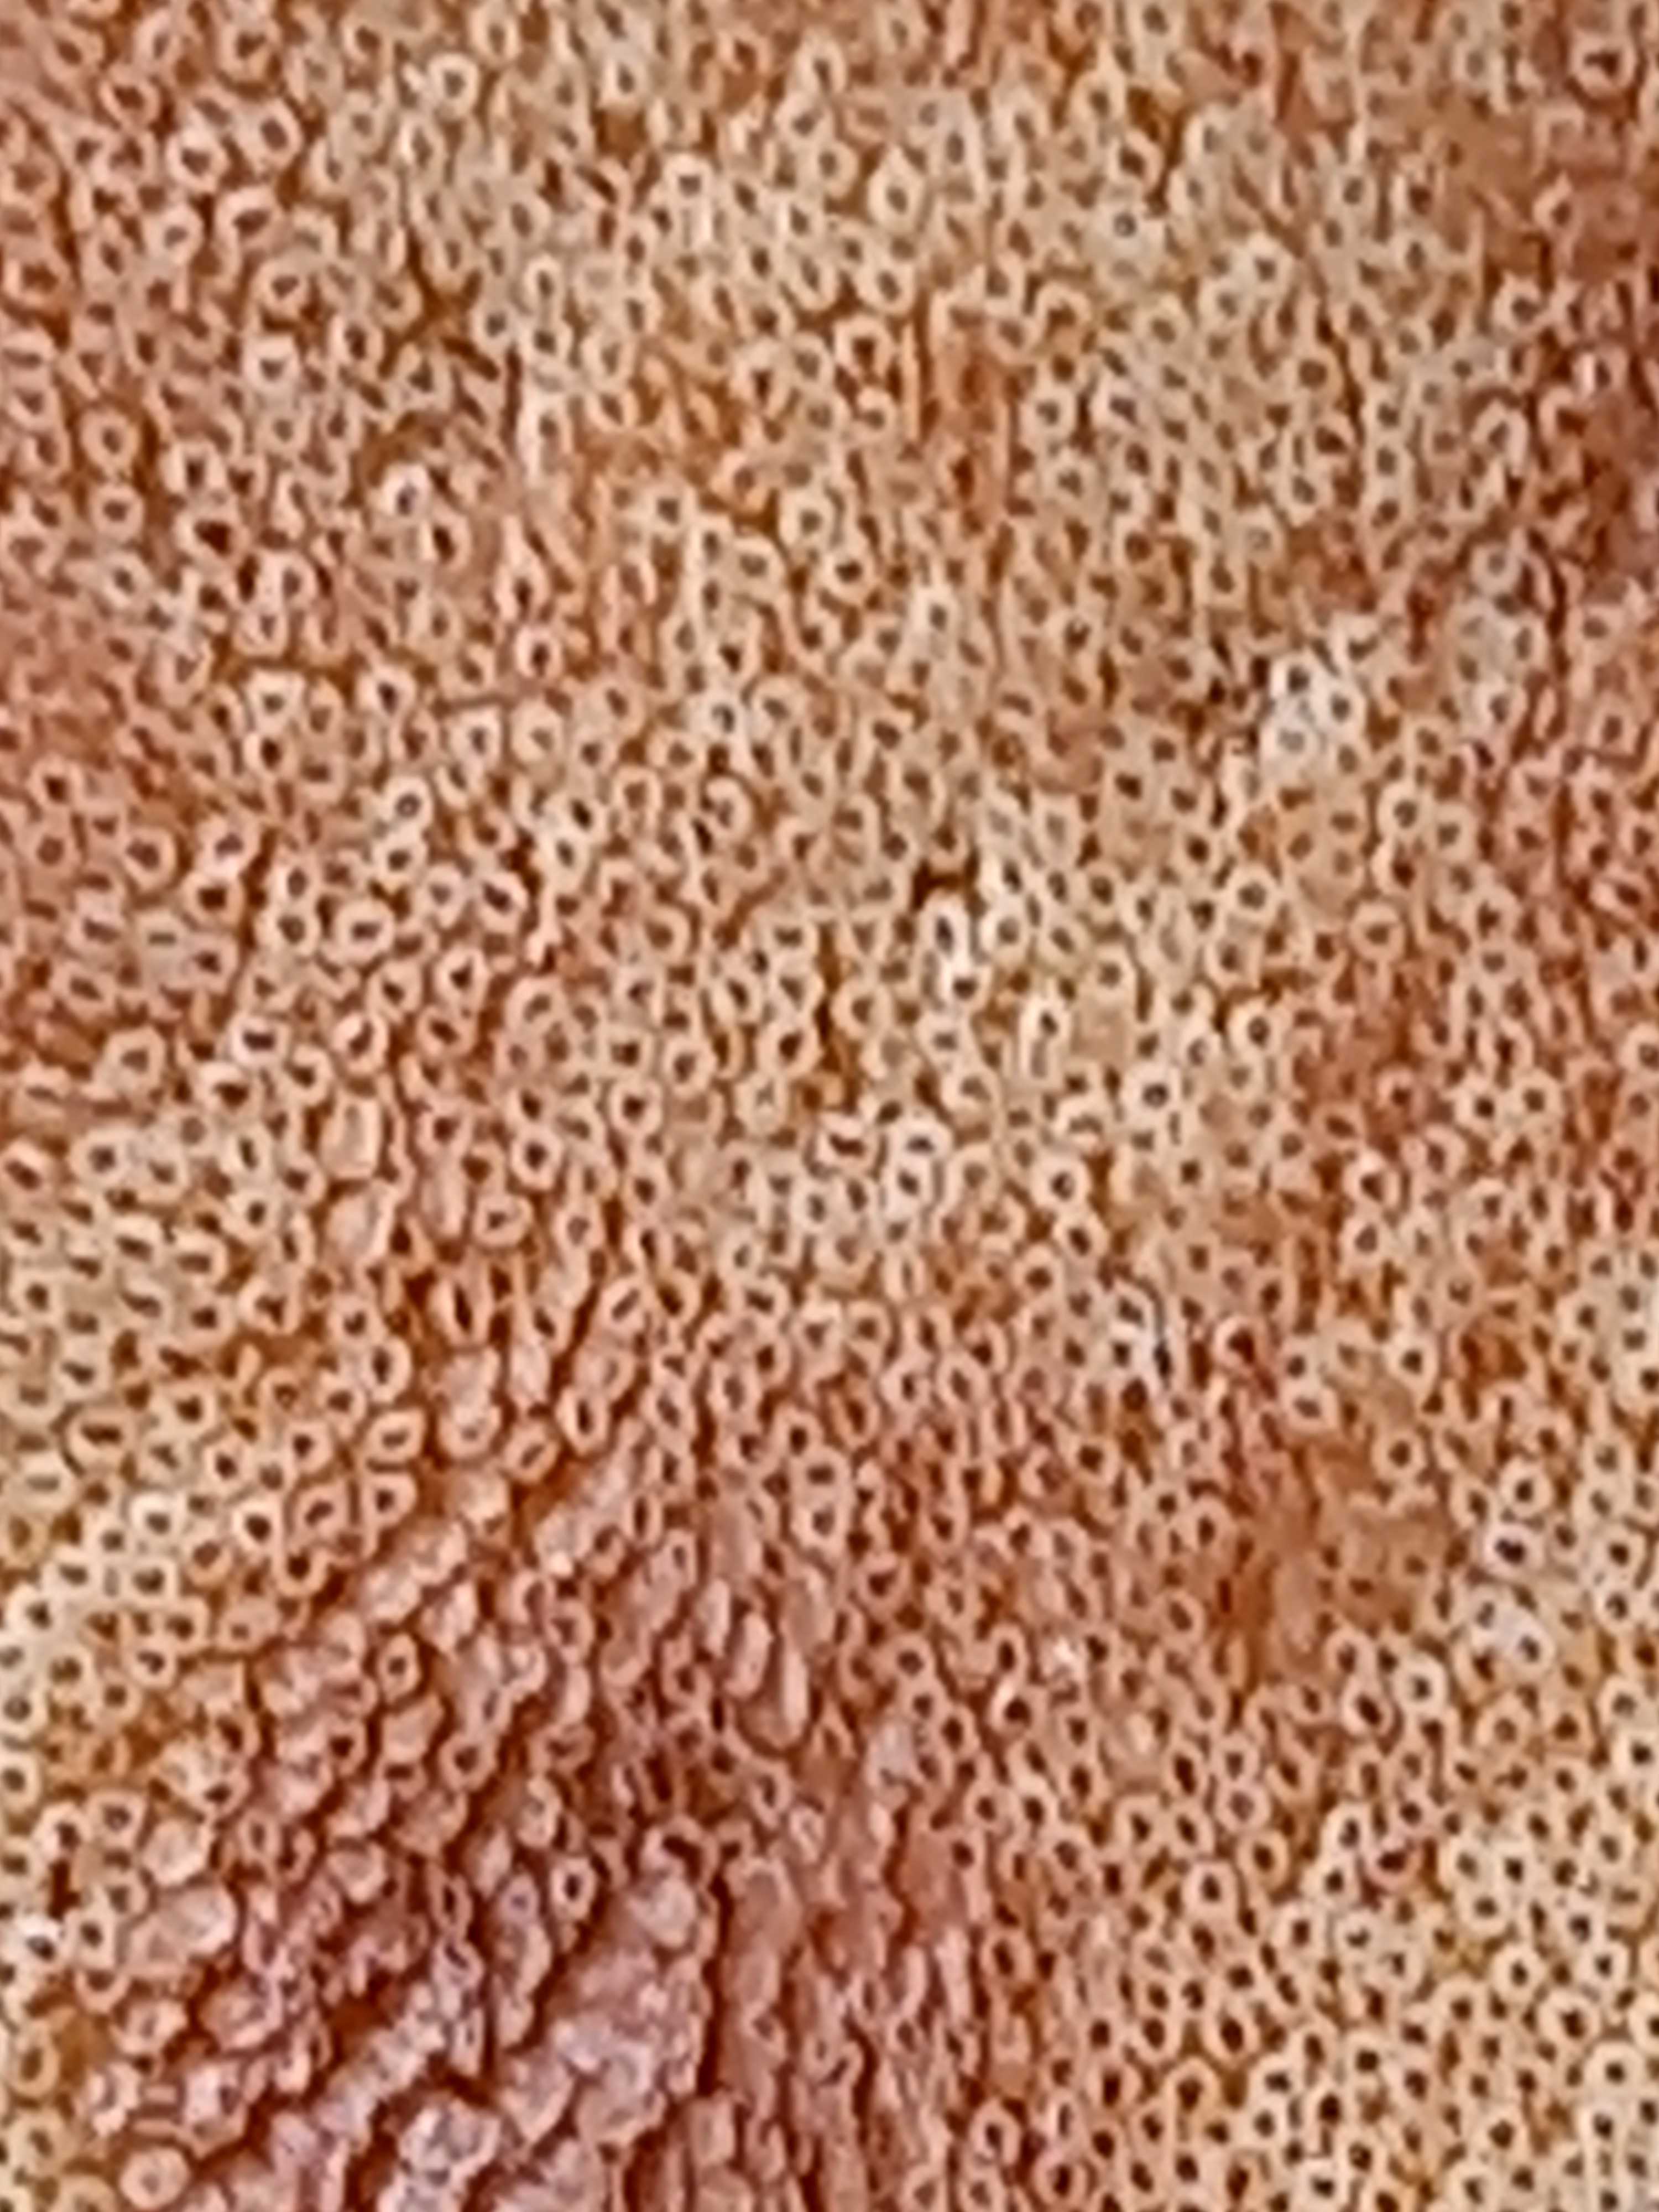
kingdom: Fungi
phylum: Basidiomycota
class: Agaricomycetes
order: Agaricales
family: Fistulinaceae
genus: Fistulina
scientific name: Fistulina hepatica
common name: oksetunge
